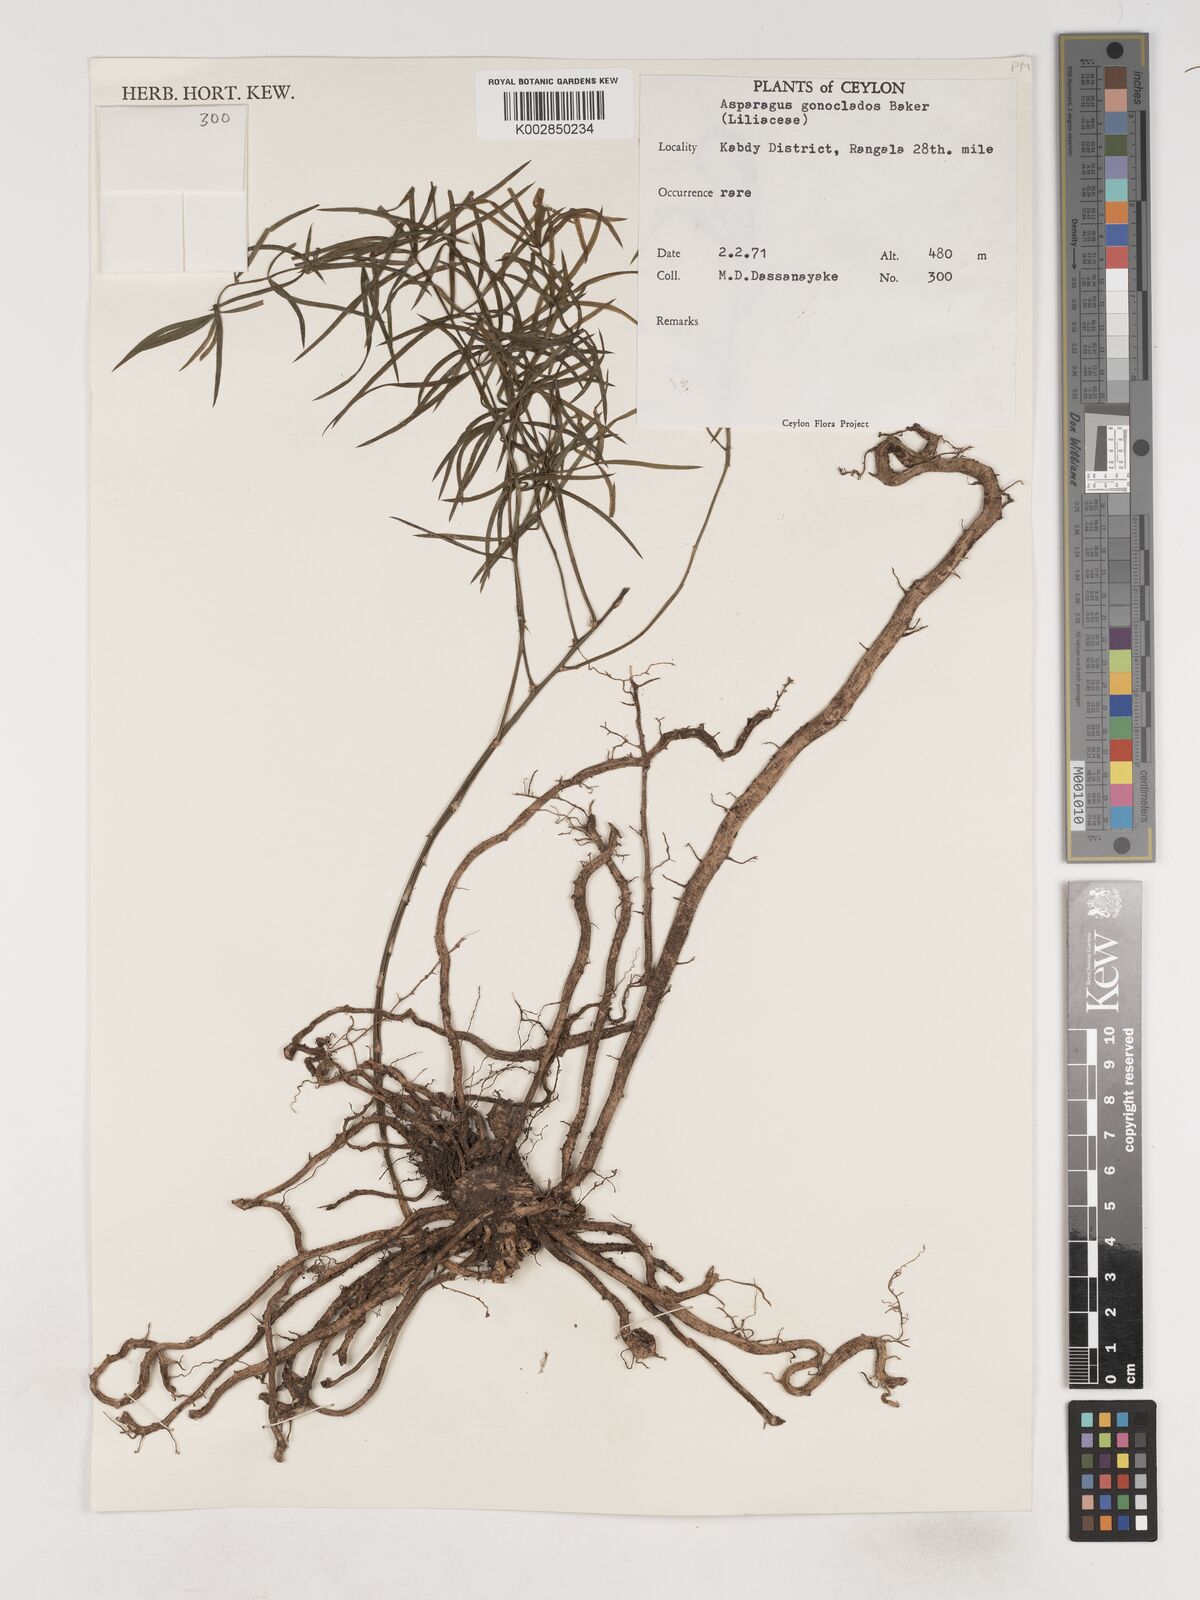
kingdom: Plantae
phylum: Tracheophyta
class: Liliopsida
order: Asparagales
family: Asparagaceae
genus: Asparagus
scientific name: Asparagus gonoclados
